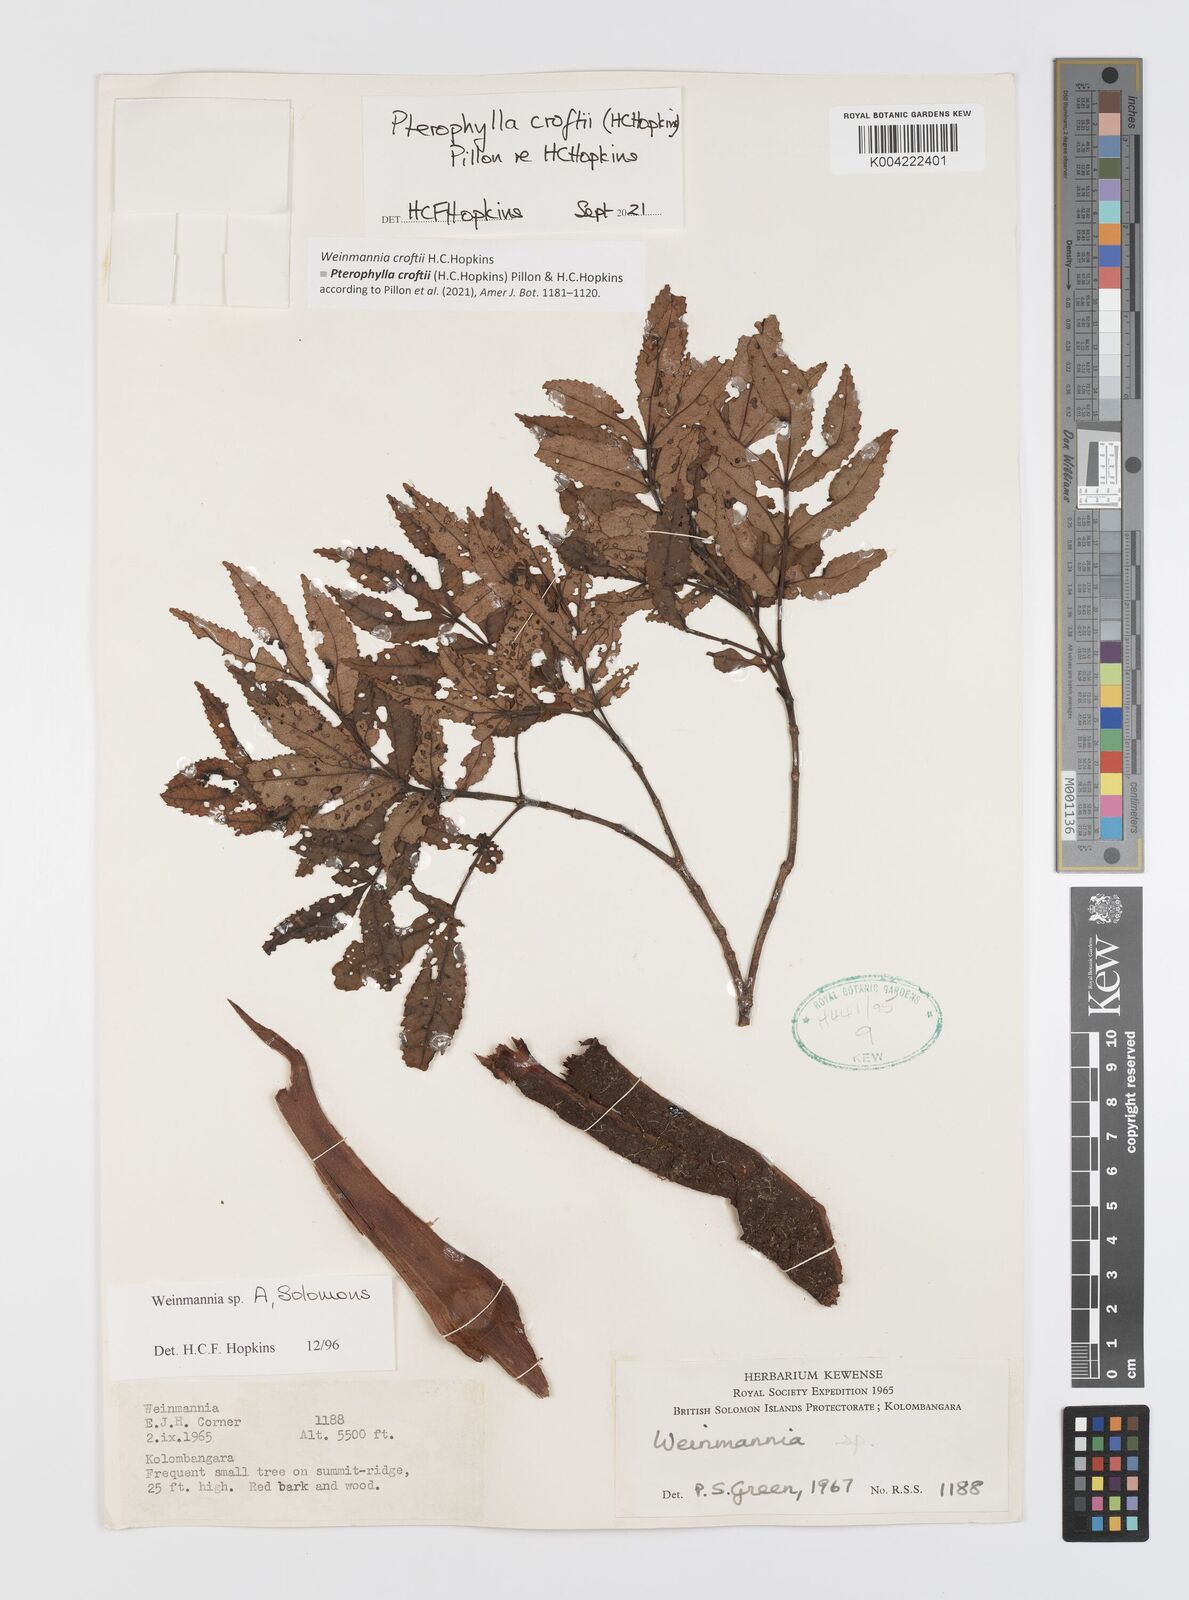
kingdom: Plantae
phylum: Tracheophyta
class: Magnoliopsida
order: Oxalidales
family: Cunoniaceae
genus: Pterophylla
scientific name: Pterophylla croftii
